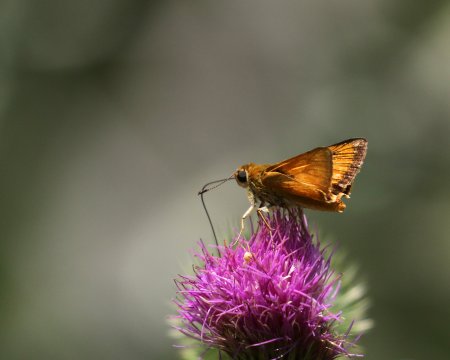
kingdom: Animalia
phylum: Arthropoda
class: Insecta
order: Lepidoptera
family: Hesperiidae
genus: Atrytone
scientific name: Atrytone delaware
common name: Delaware Skipper
